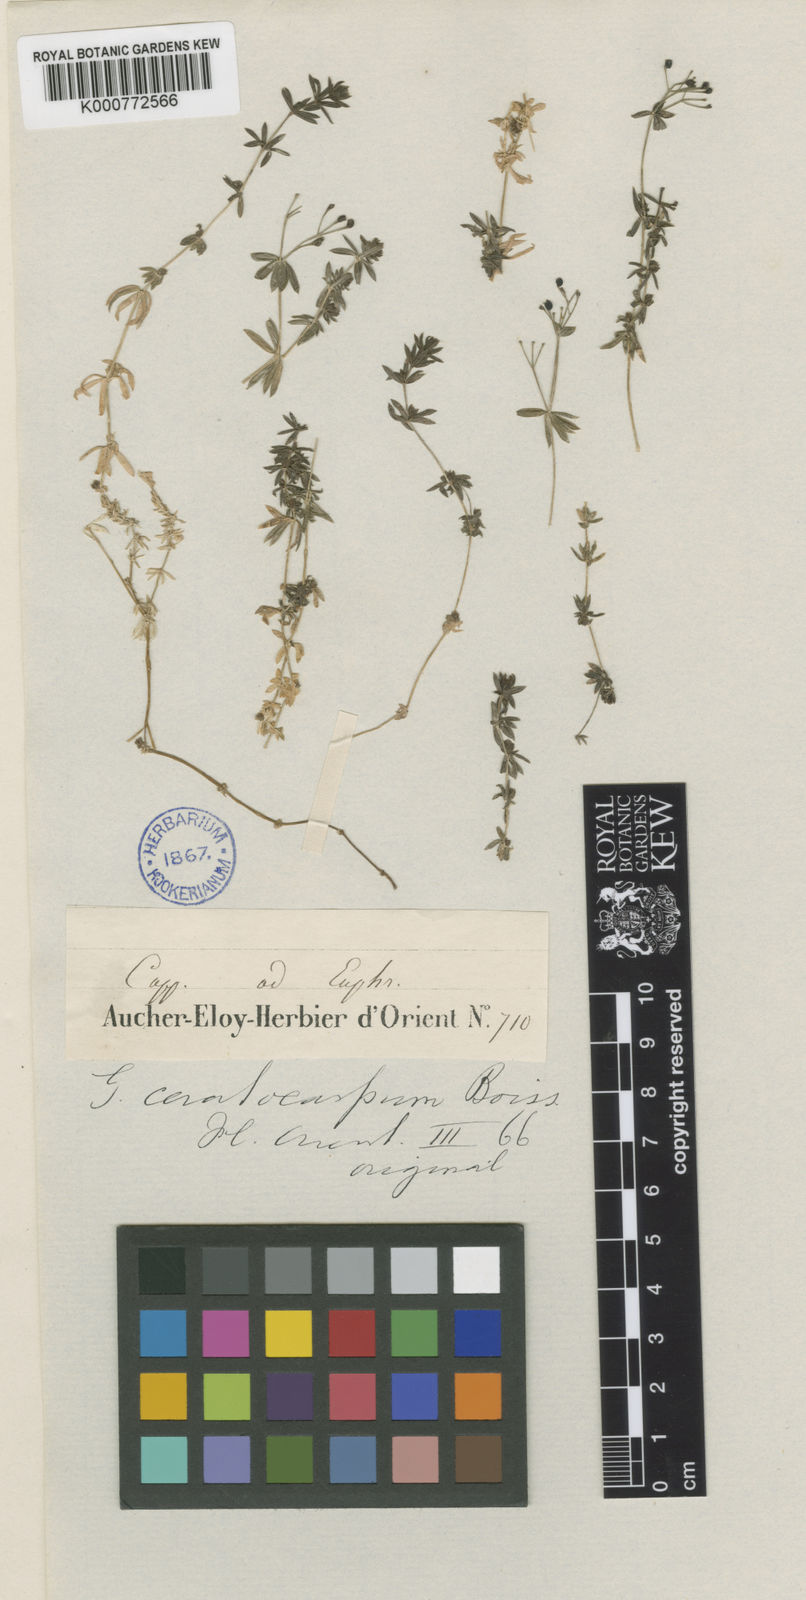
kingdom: Plantae
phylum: Tracheophyta
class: Magnoliopsida
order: Gentianales
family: Rubiaceae
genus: Galium
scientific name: Galium ceratocarpon
